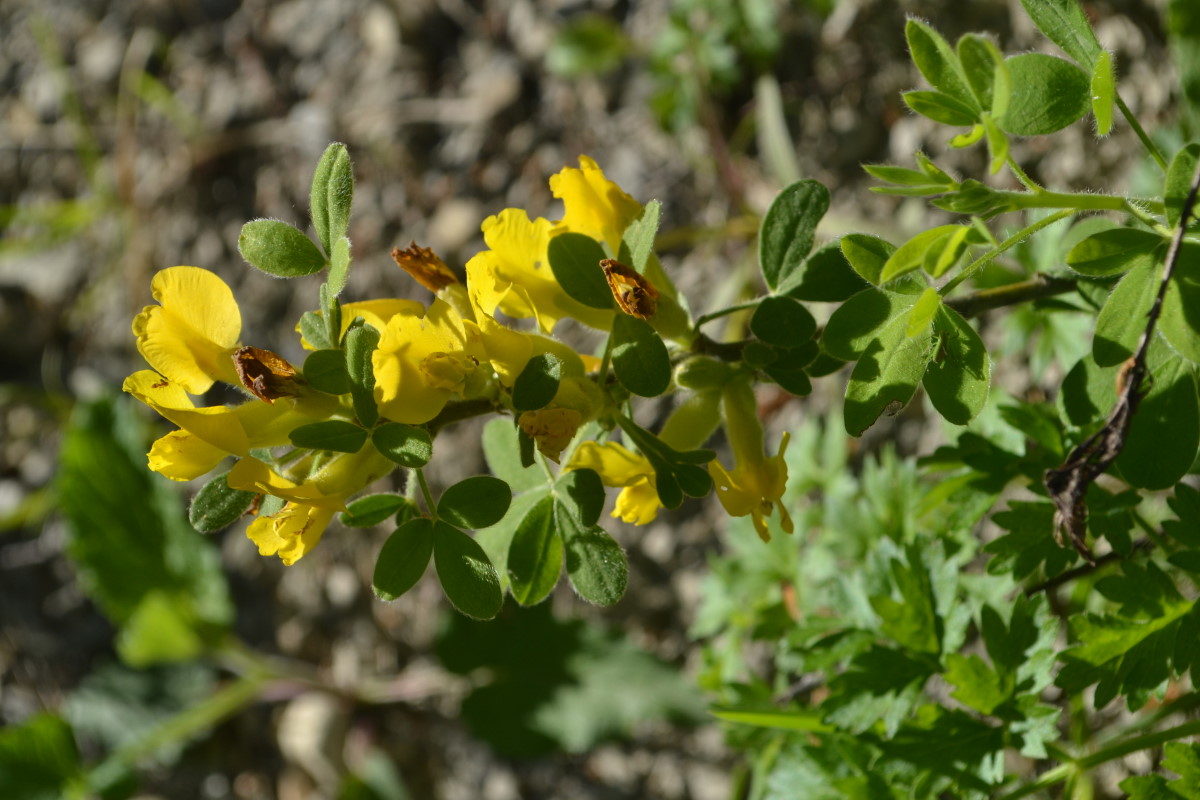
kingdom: Plantae
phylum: Tracheophyta
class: Magnoliopsida
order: Fabales
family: Fabaceae
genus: Genista
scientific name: Genista
